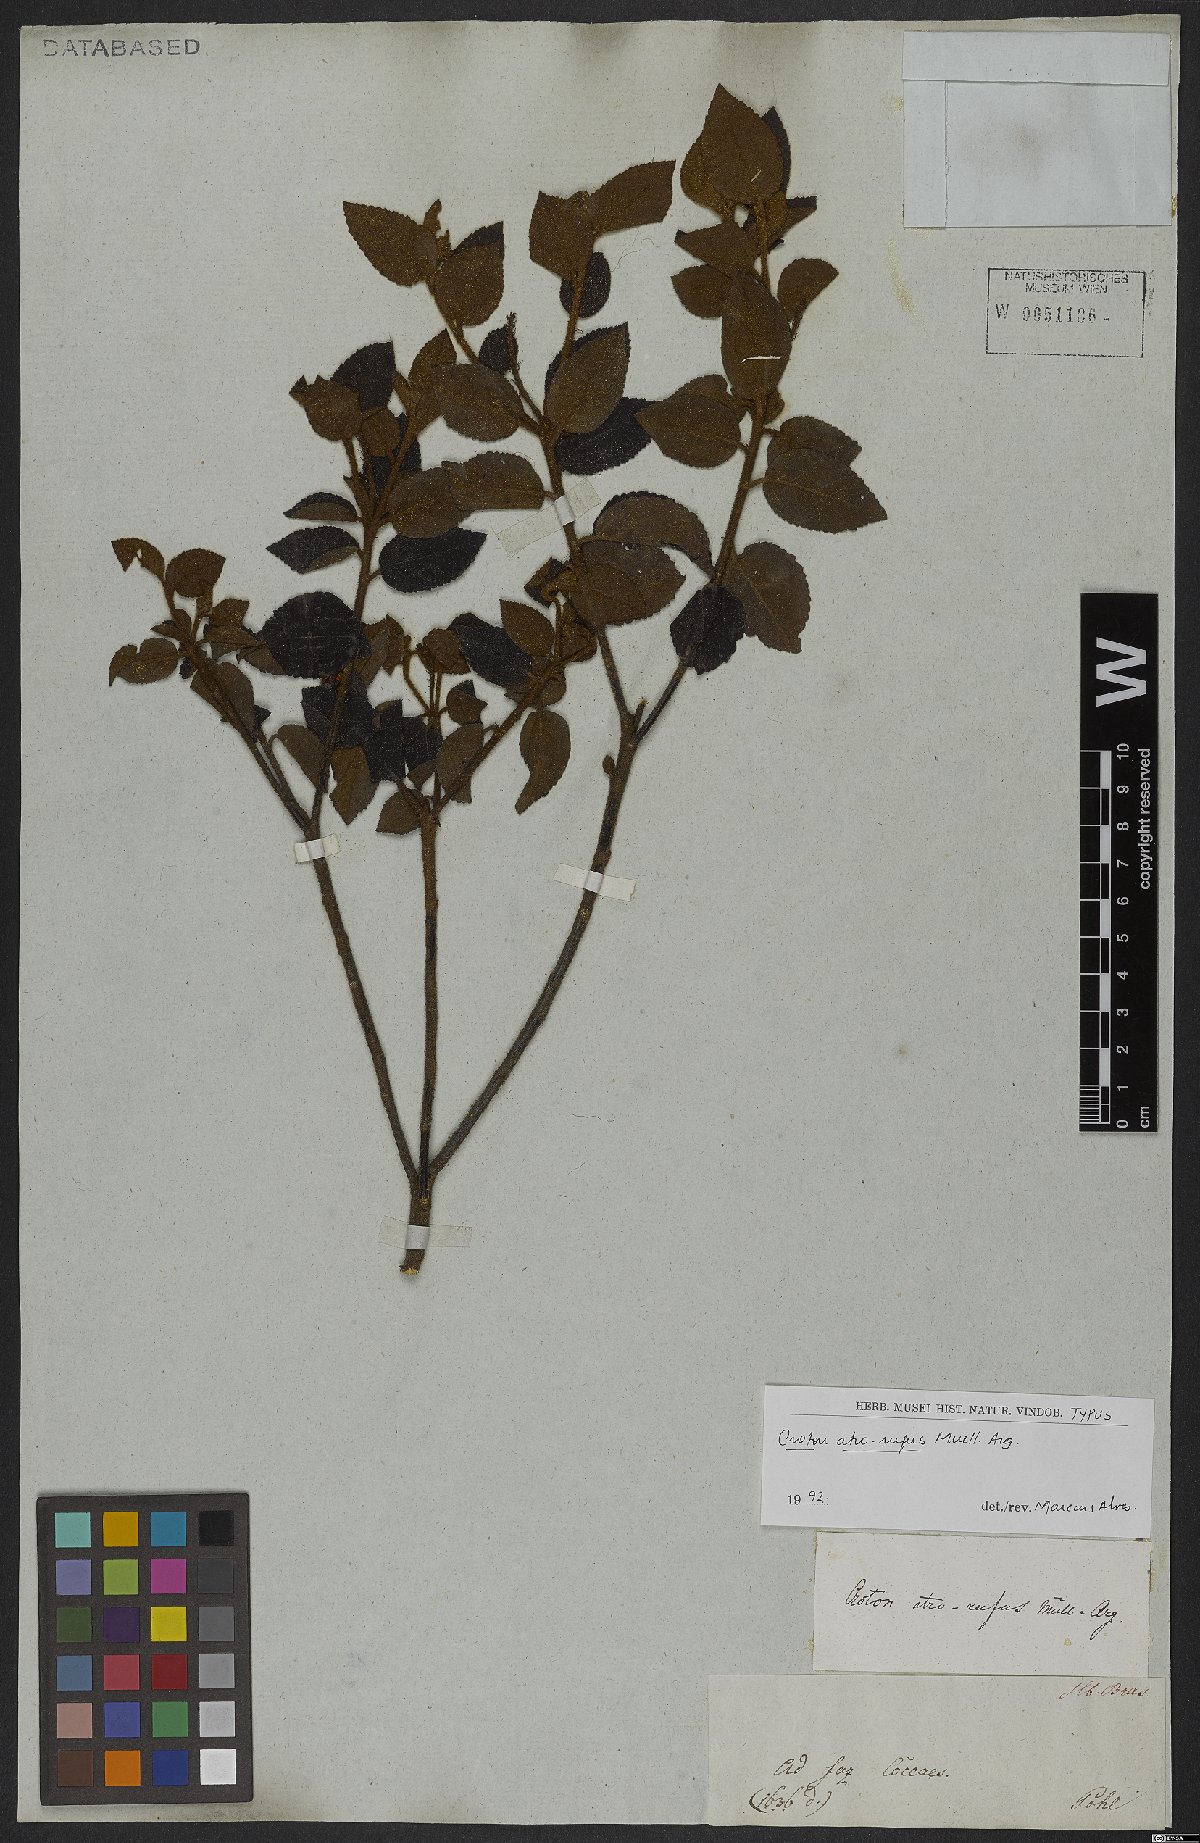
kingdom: Plantae
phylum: Tracheophyta
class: Magnoliopsida
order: Malpighiales
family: Euphorbiaceae
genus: Croton
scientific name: Croton atrorufus
